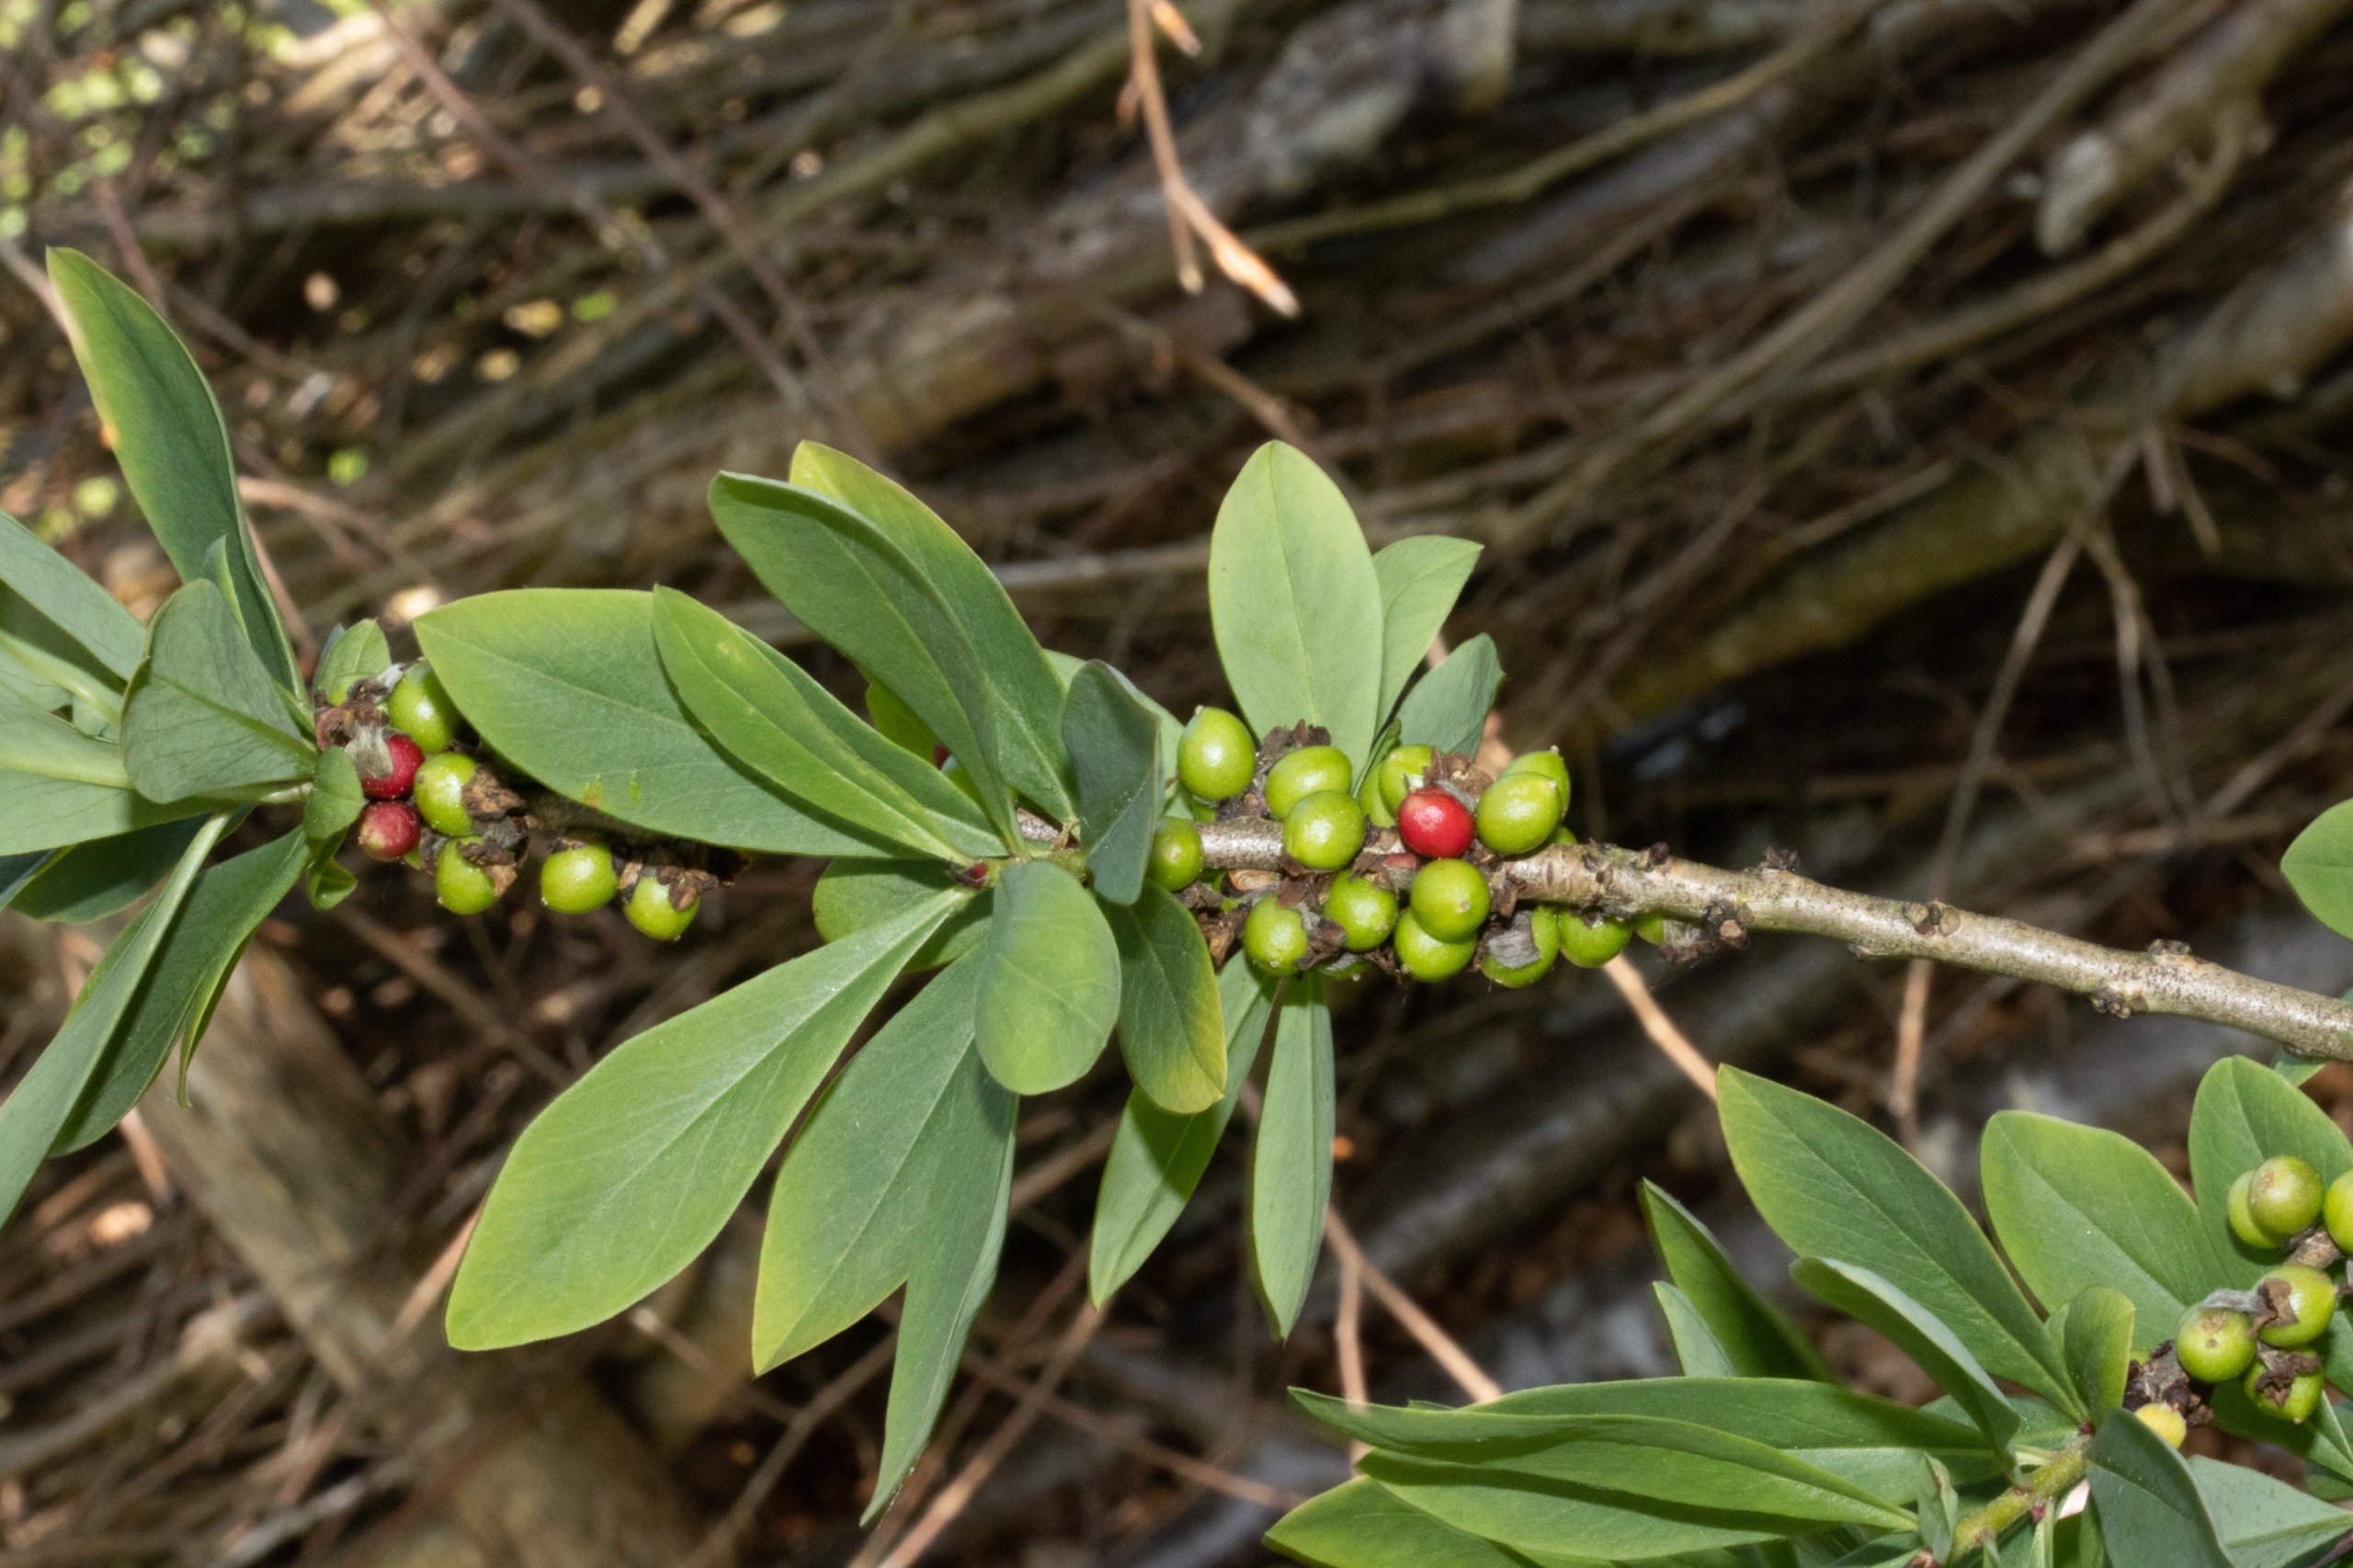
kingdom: Plantae
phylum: Tracheophyta
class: Magnoliopsida
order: Malvales
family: Thymelaeaceae
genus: Daphne
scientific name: Daphne mezereum
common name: Pebertræ
